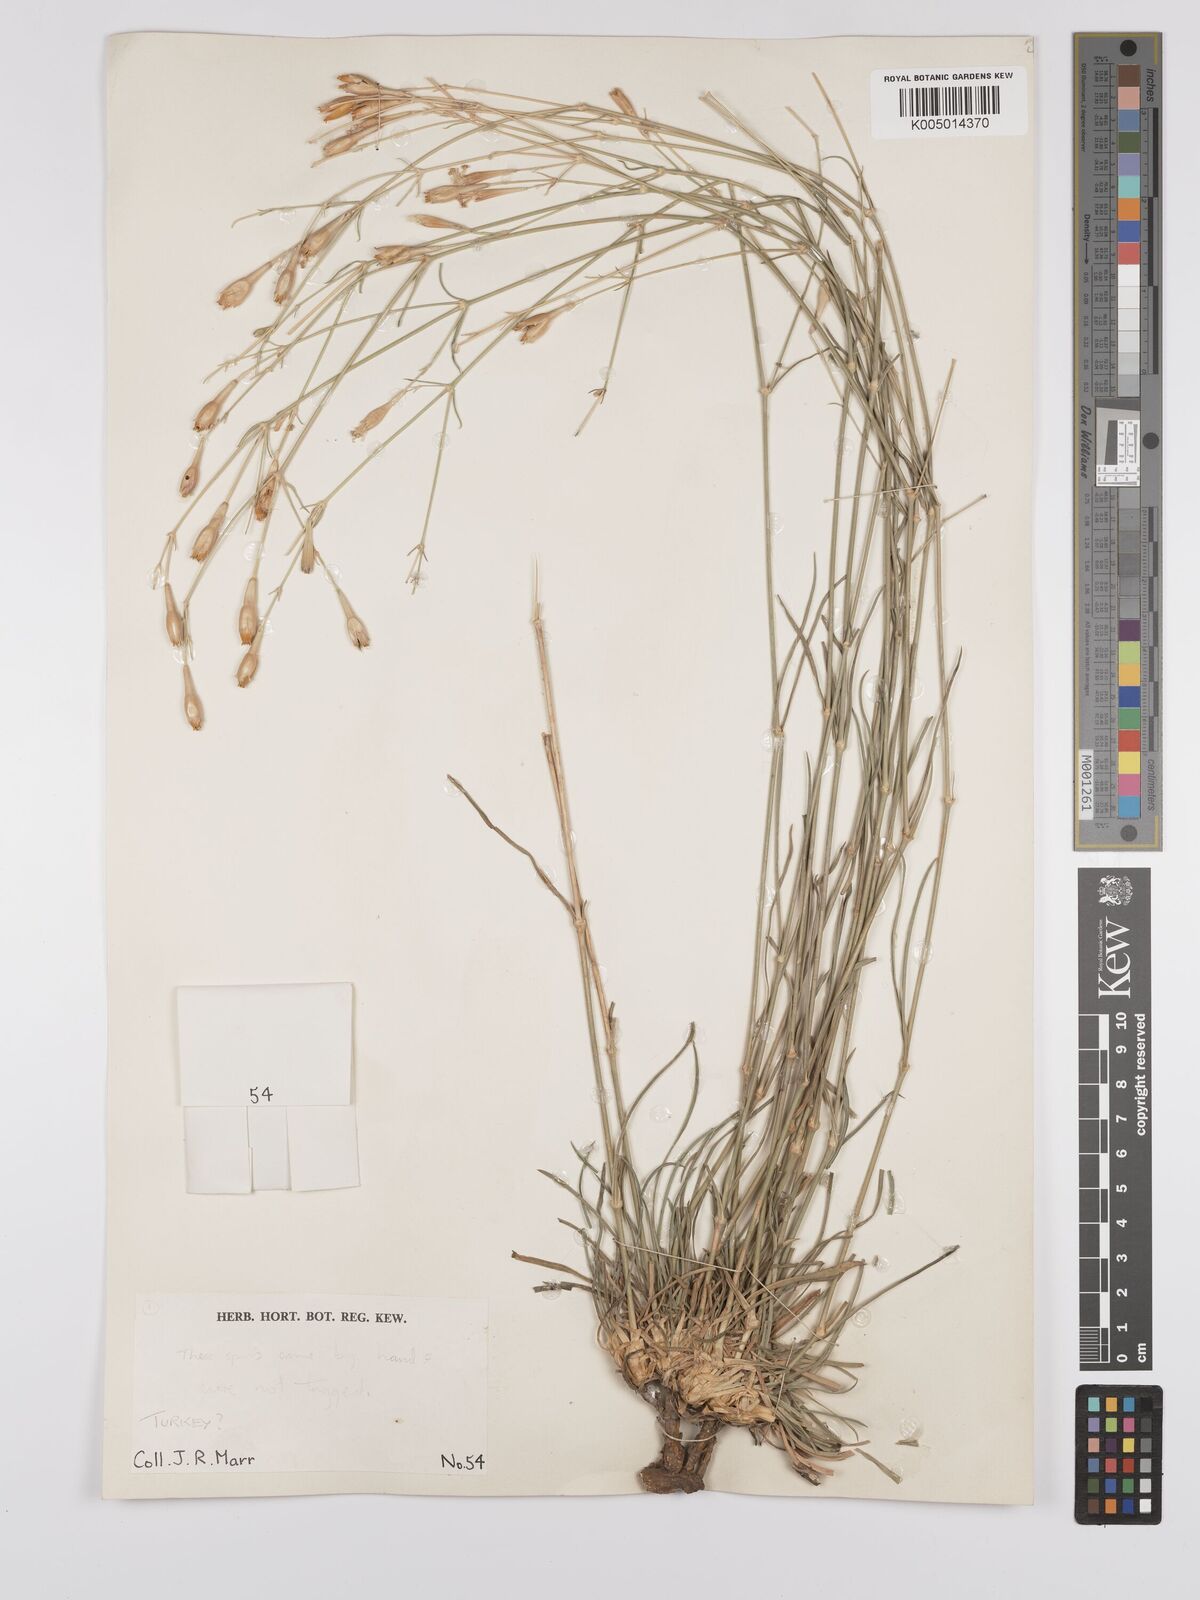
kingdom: Plantae
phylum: Tracheophyta
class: Magnoliopsida
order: Caryophyllales
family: Caryophyllaceae
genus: Silene
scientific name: Silene
